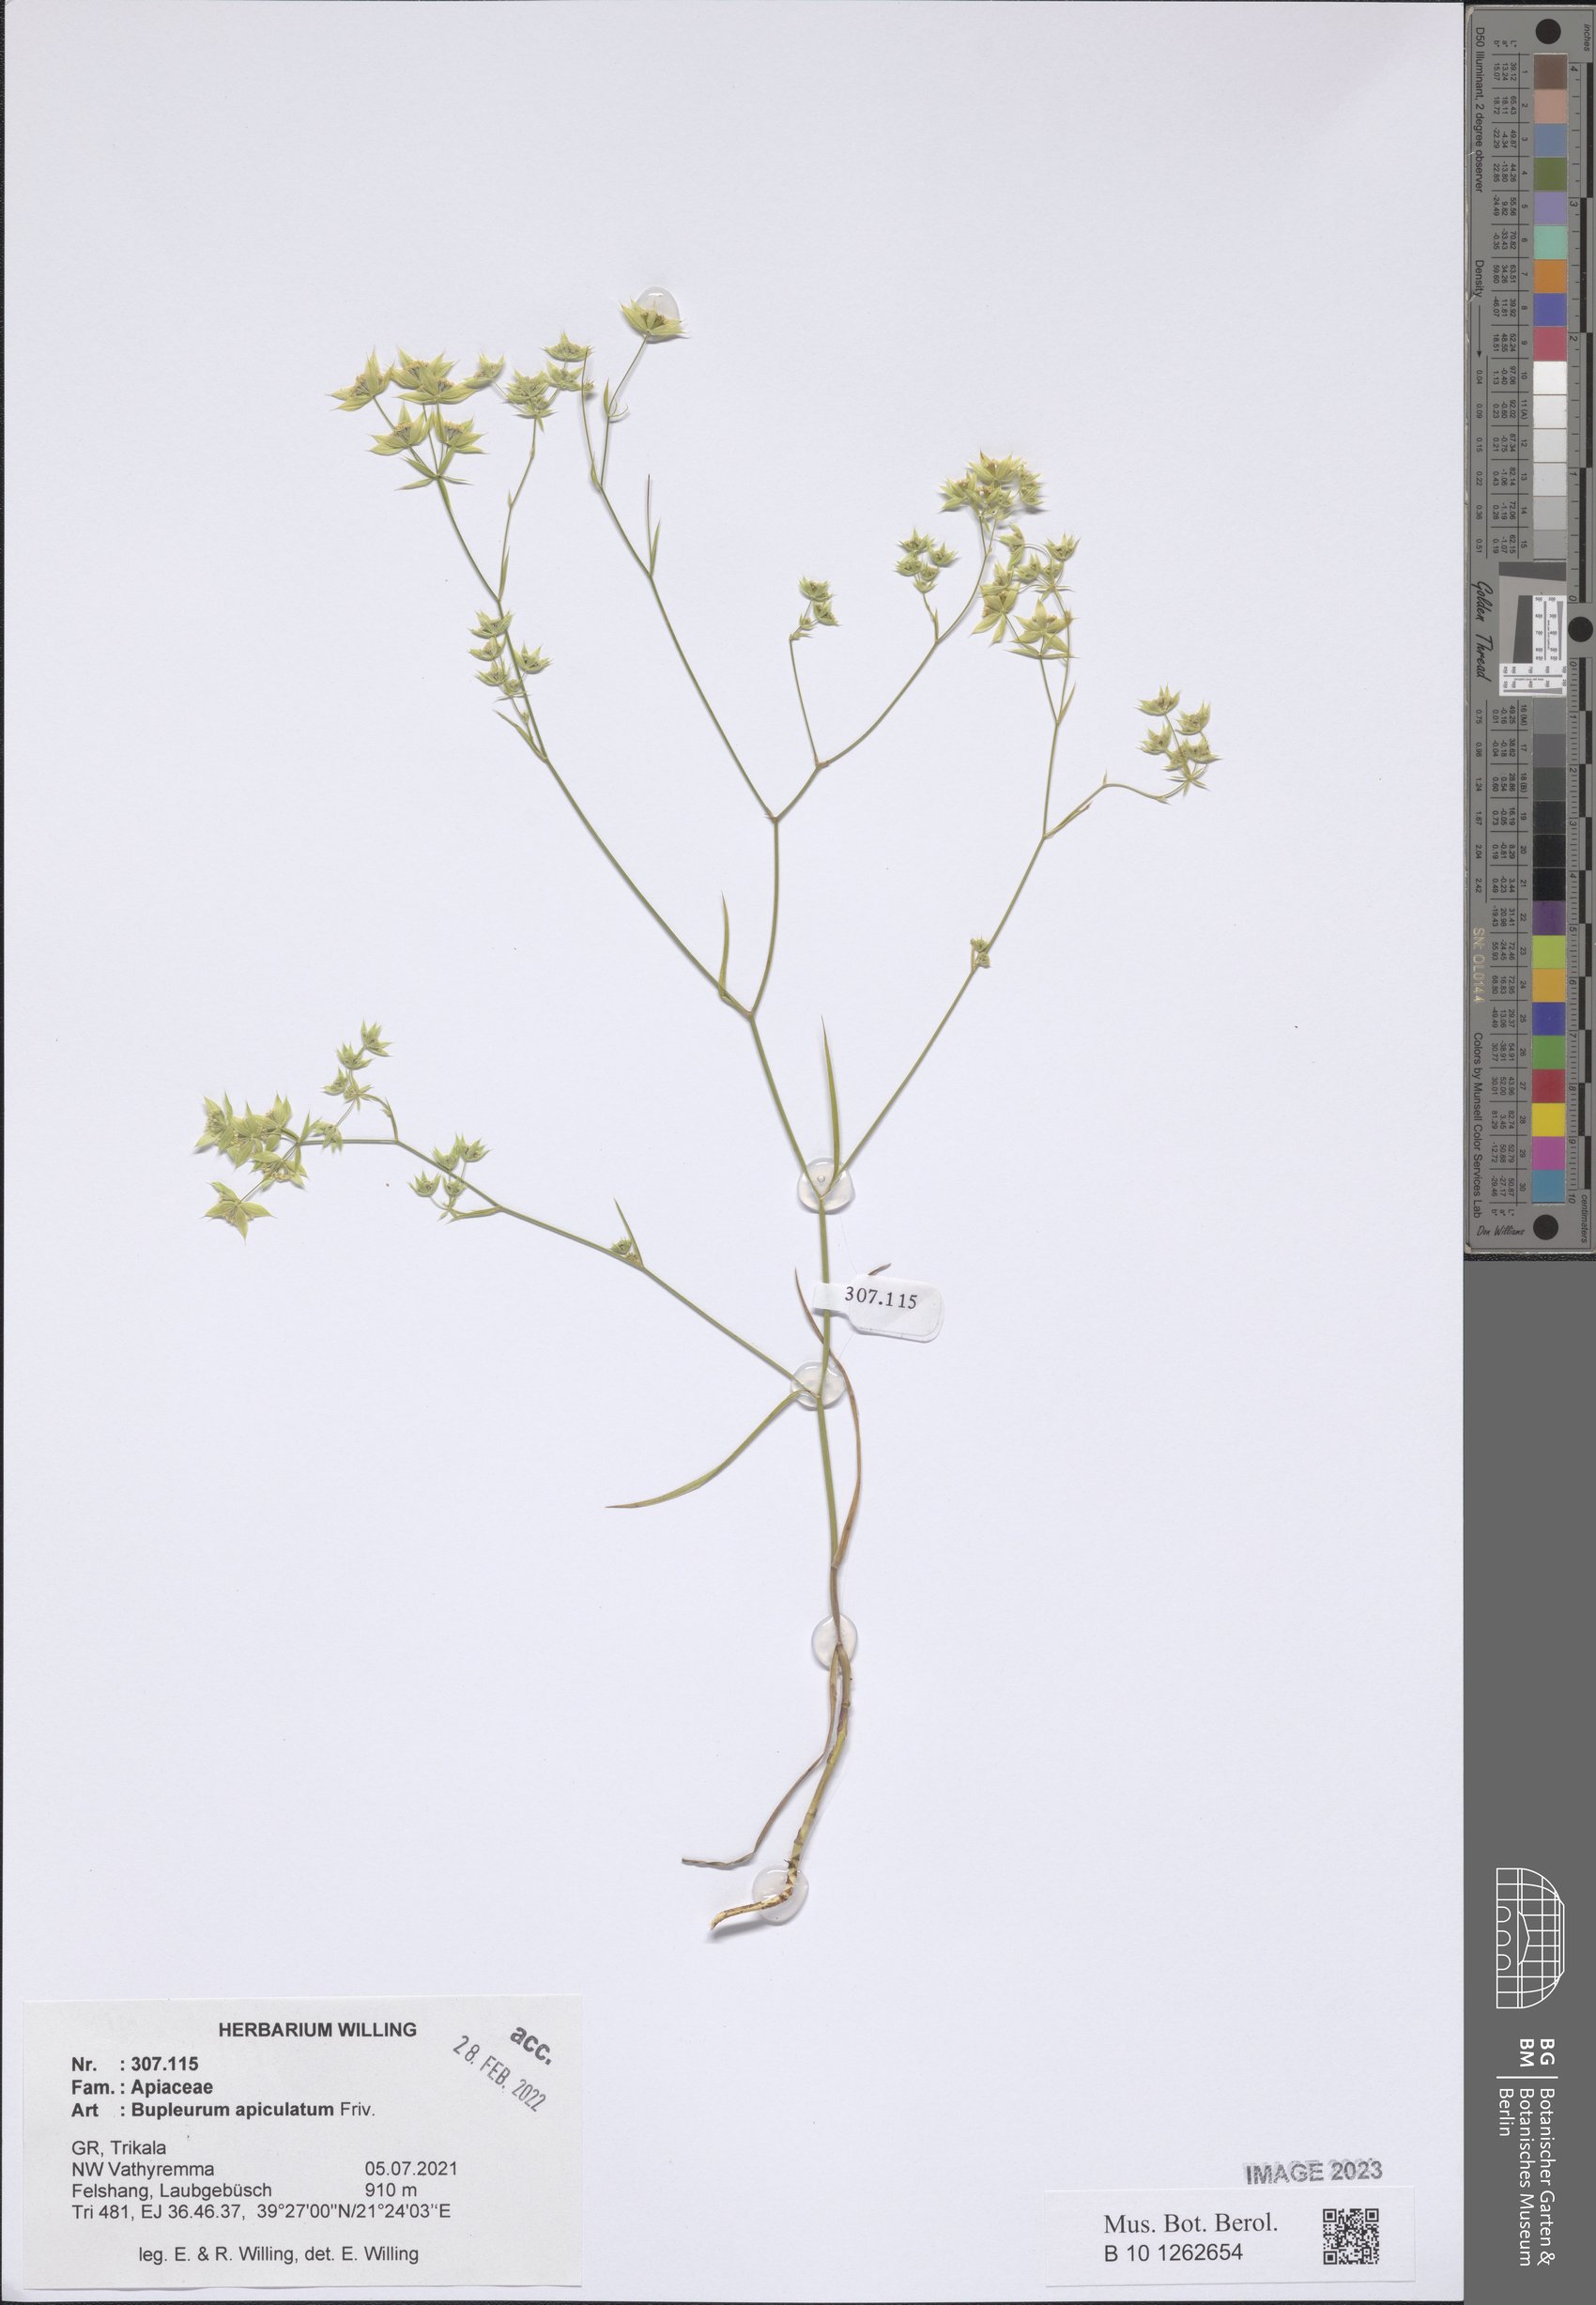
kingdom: Plantae
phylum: Tracheophyta
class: Magnoliopsida
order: Apiales
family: Apiaceae
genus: Bupleurum
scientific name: Bupleurum apiculatum
